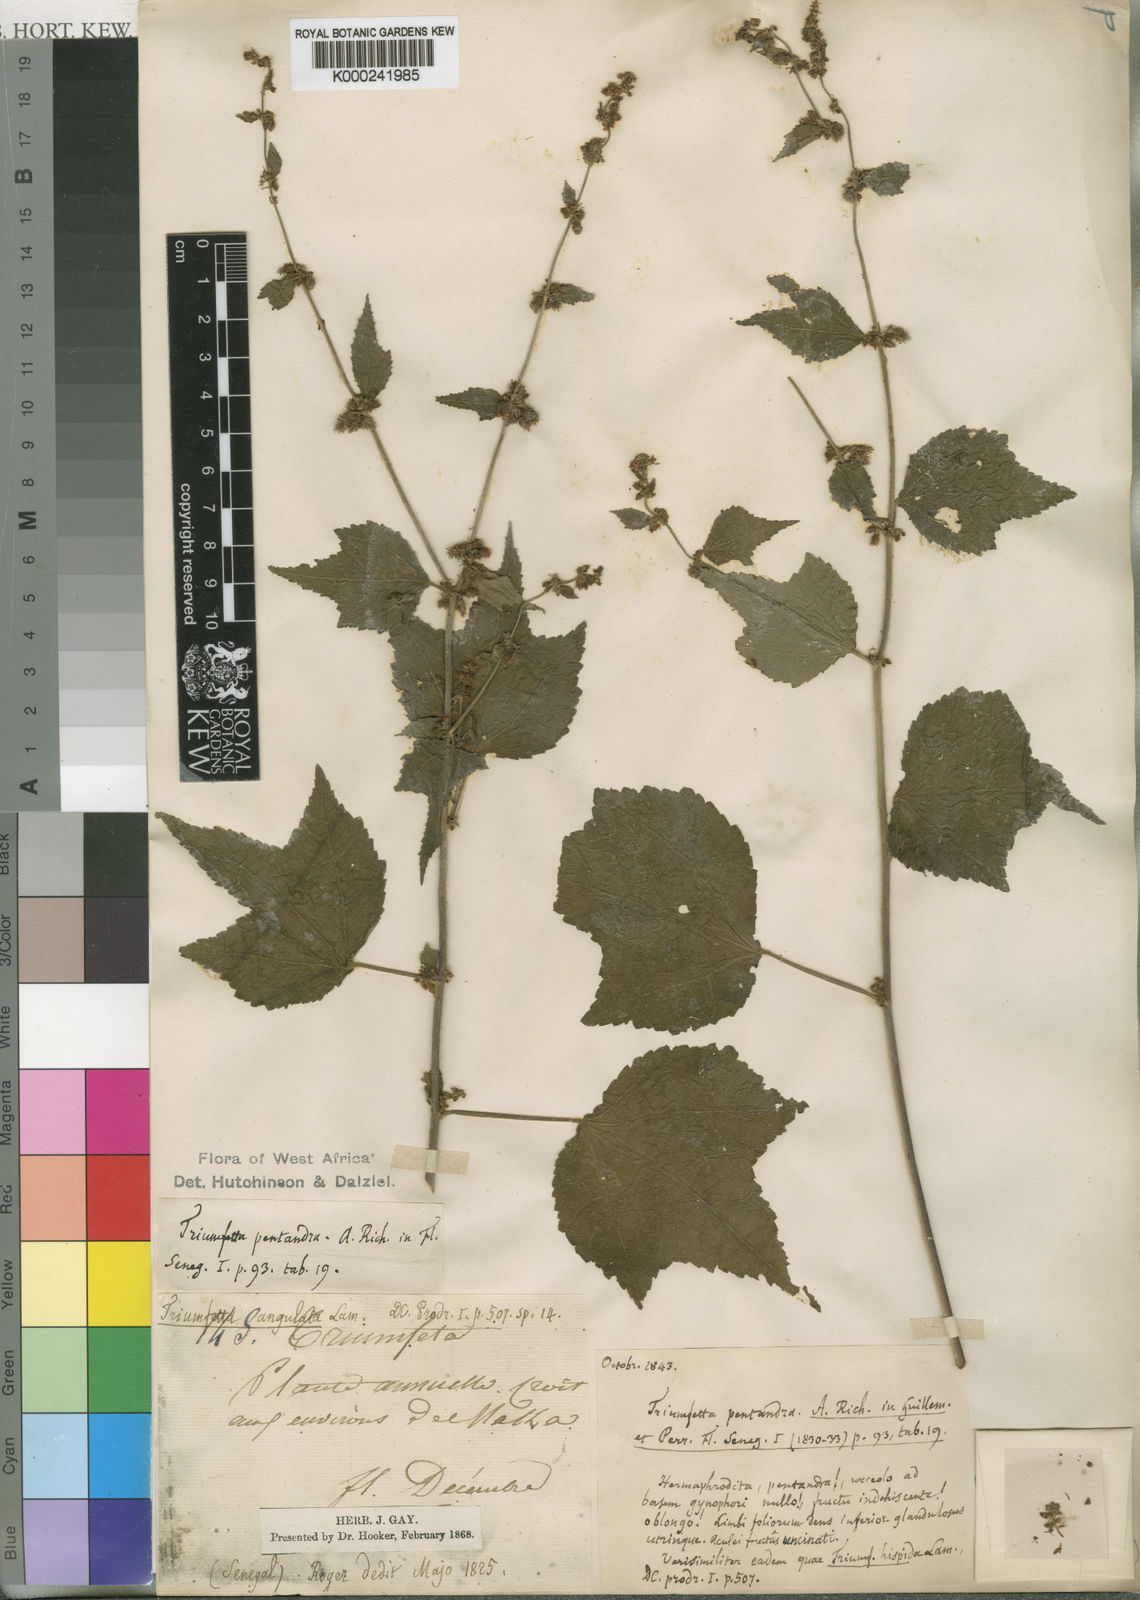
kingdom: Plantae
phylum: Tracheophyta
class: Magnoliopsida
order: Malvales
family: Malvaceae
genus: Triumfetta
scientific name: Triumfetta pentandra
